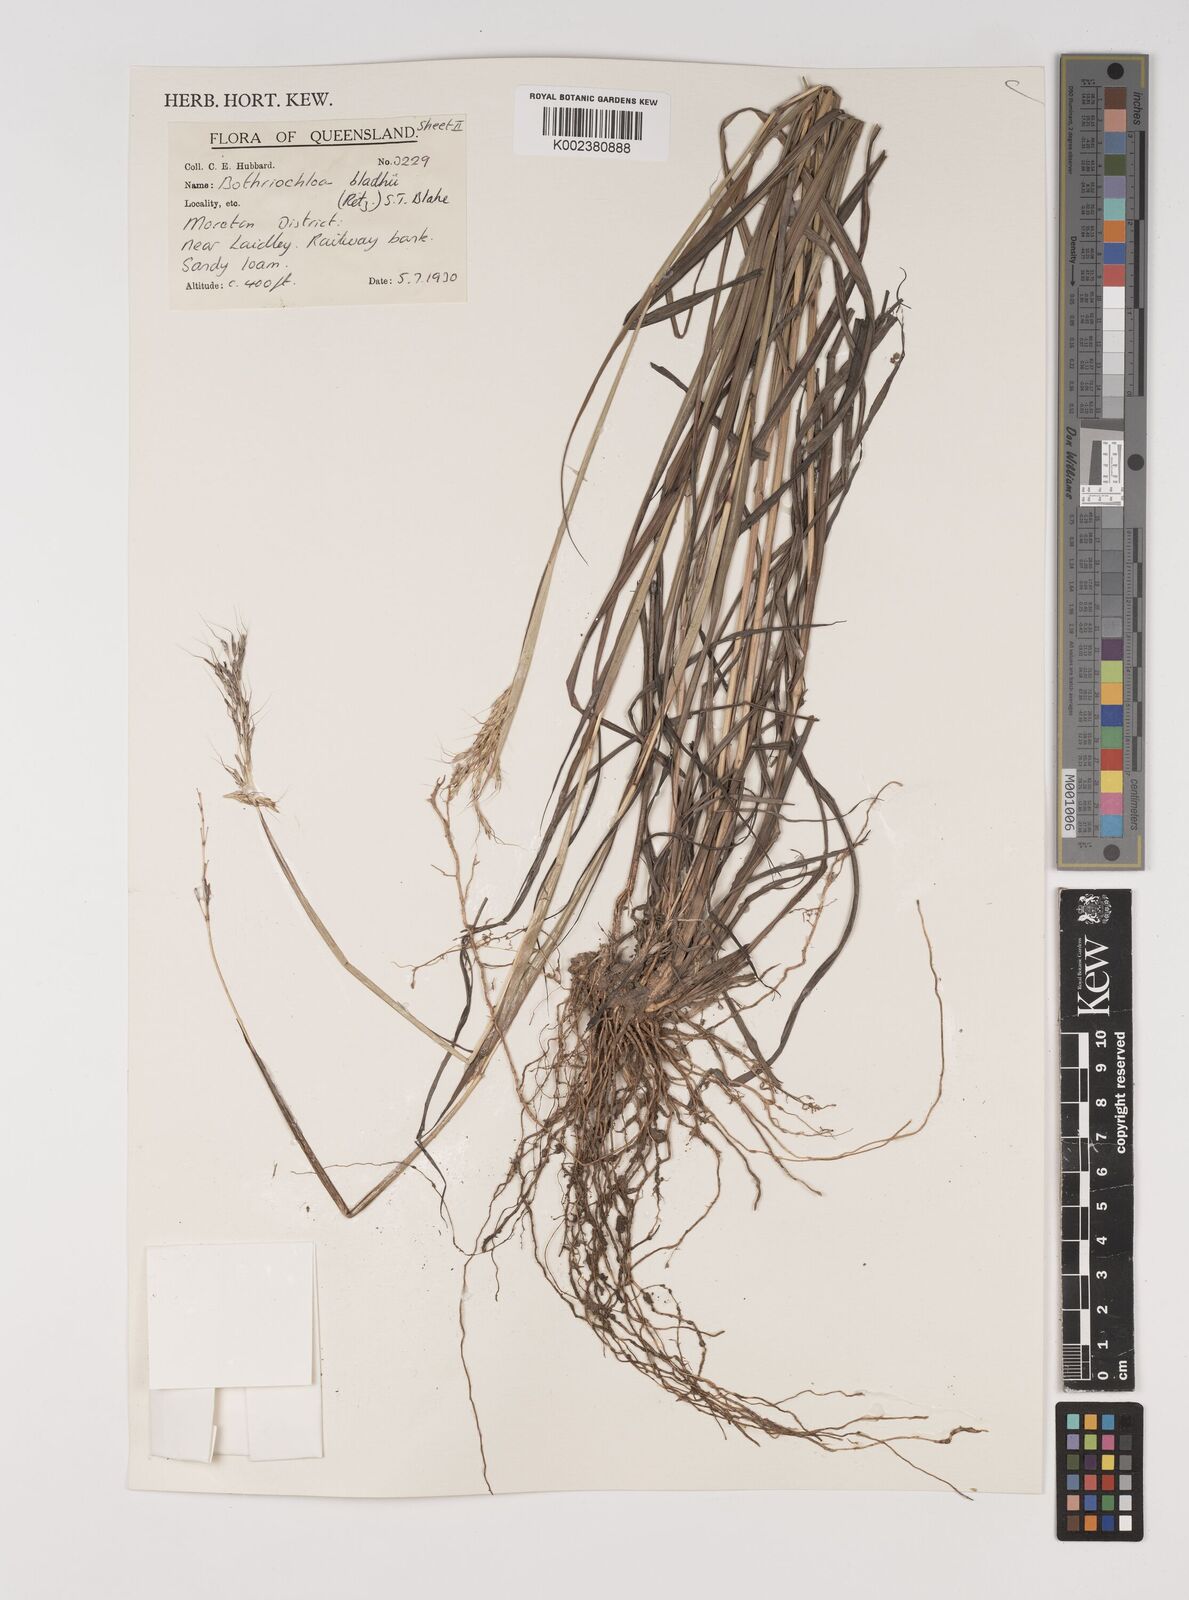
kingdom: Plantae
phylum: Tracheophyta
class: Liliopsida
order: Poales
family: Poaceae
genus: Bothriochloa
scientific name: Bothriochloa bladhii
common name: Caucasian bluestem
